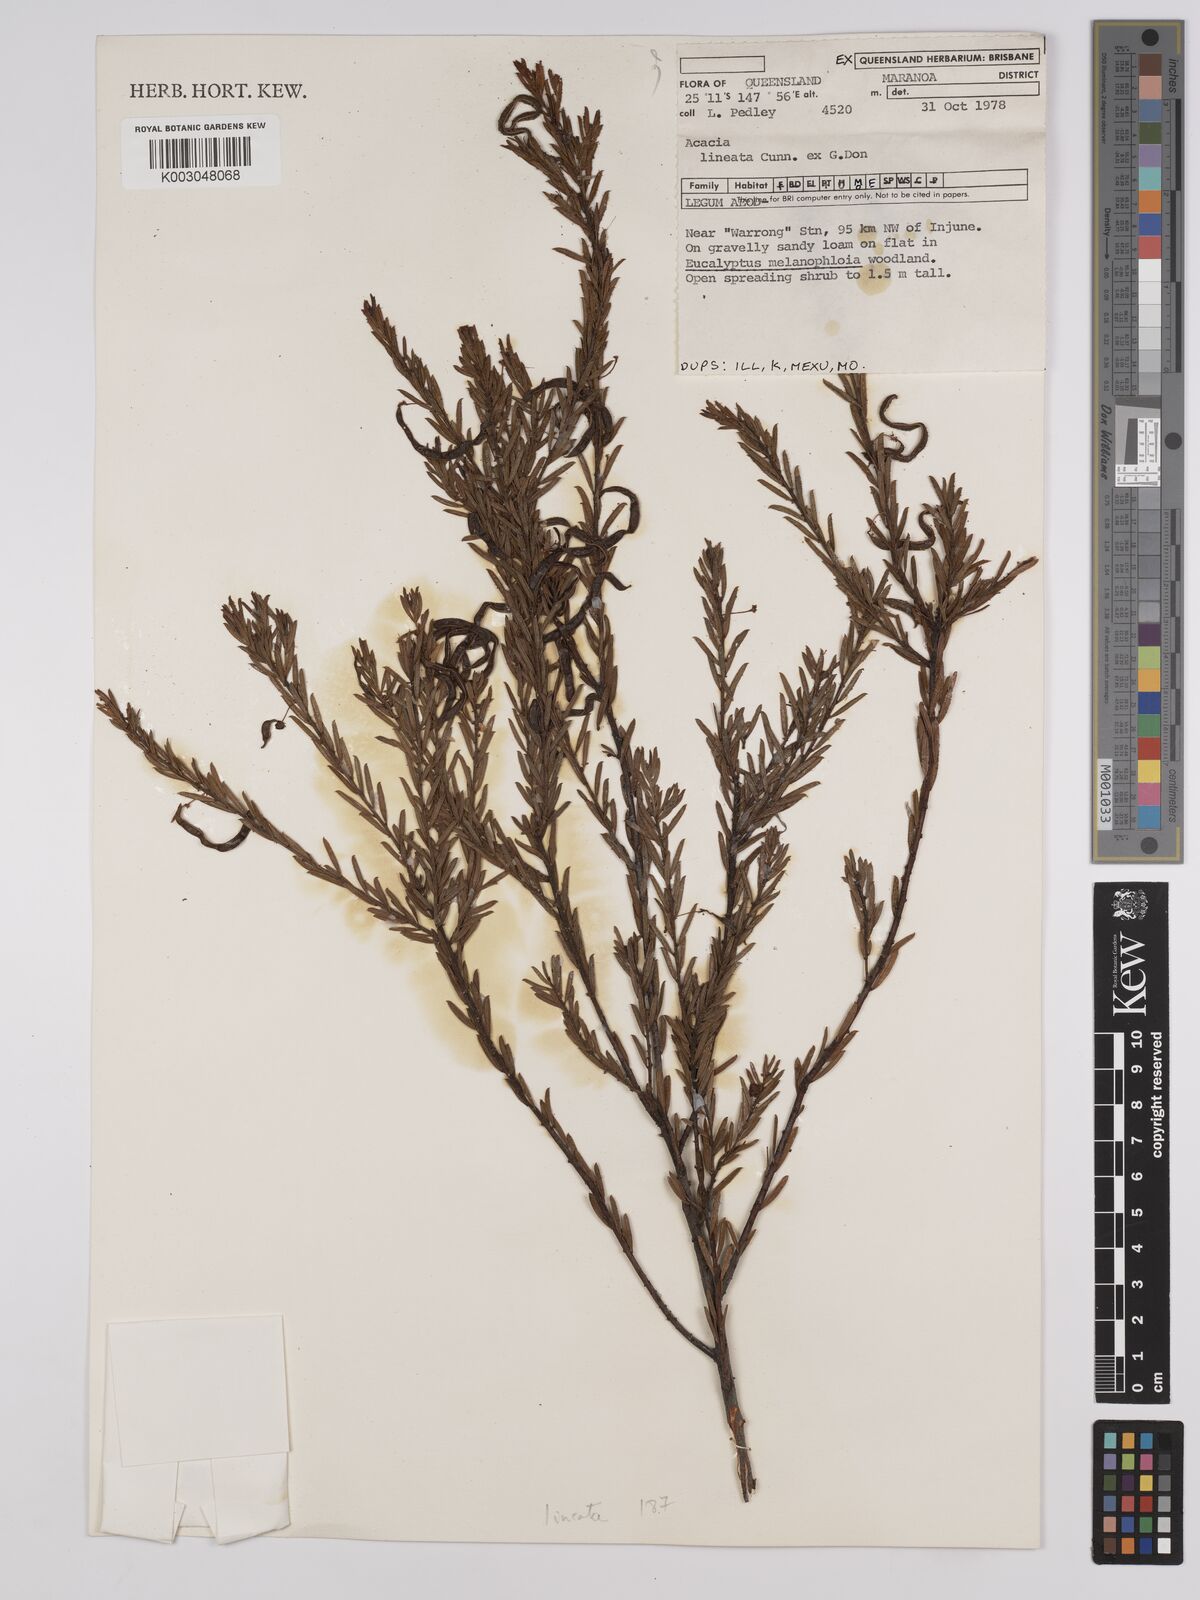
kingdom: Plantae
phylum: Tracheophyta
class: Magnoliopsida
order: Fabales
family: Fabaceae
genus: Acacia
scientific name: Acacia lineata
